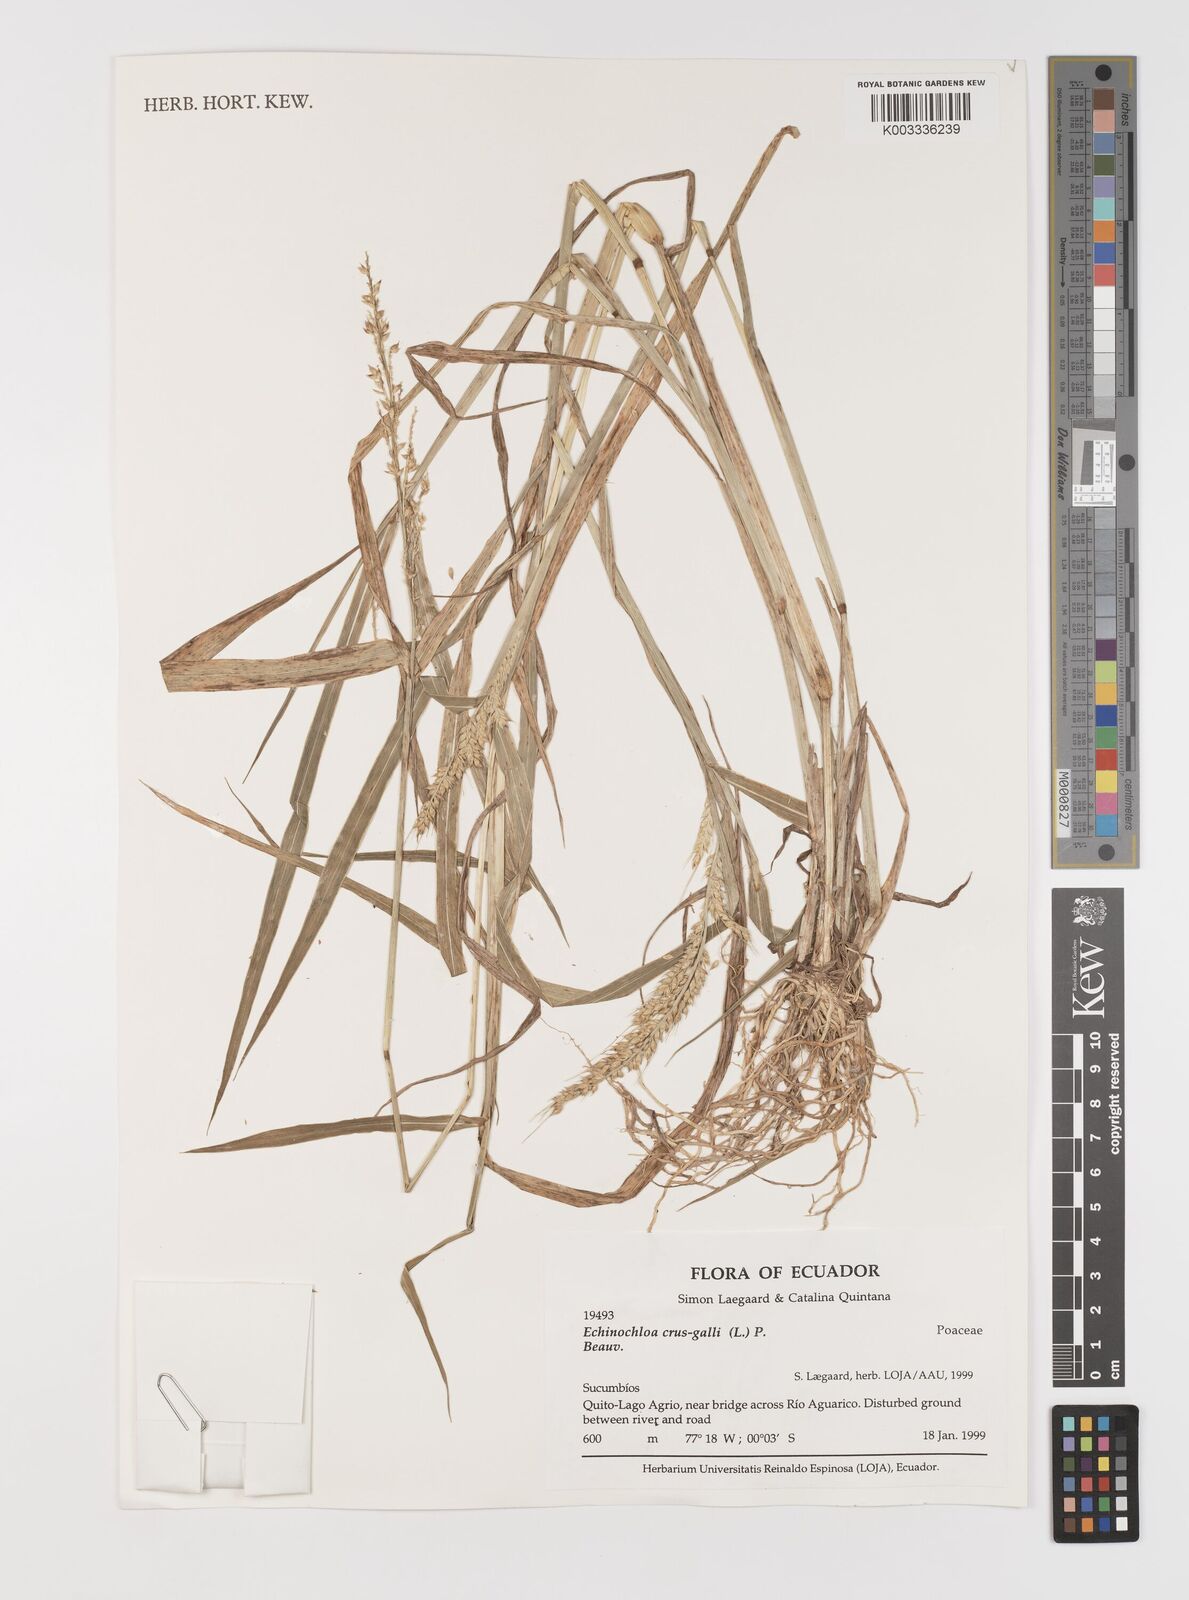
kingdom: Plantae
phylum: Tracheophyta
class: Liliopsida
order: Poales
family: Poaceae
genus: Echinochloa
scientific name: Echinochloa crus-galli
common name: Cockspur
